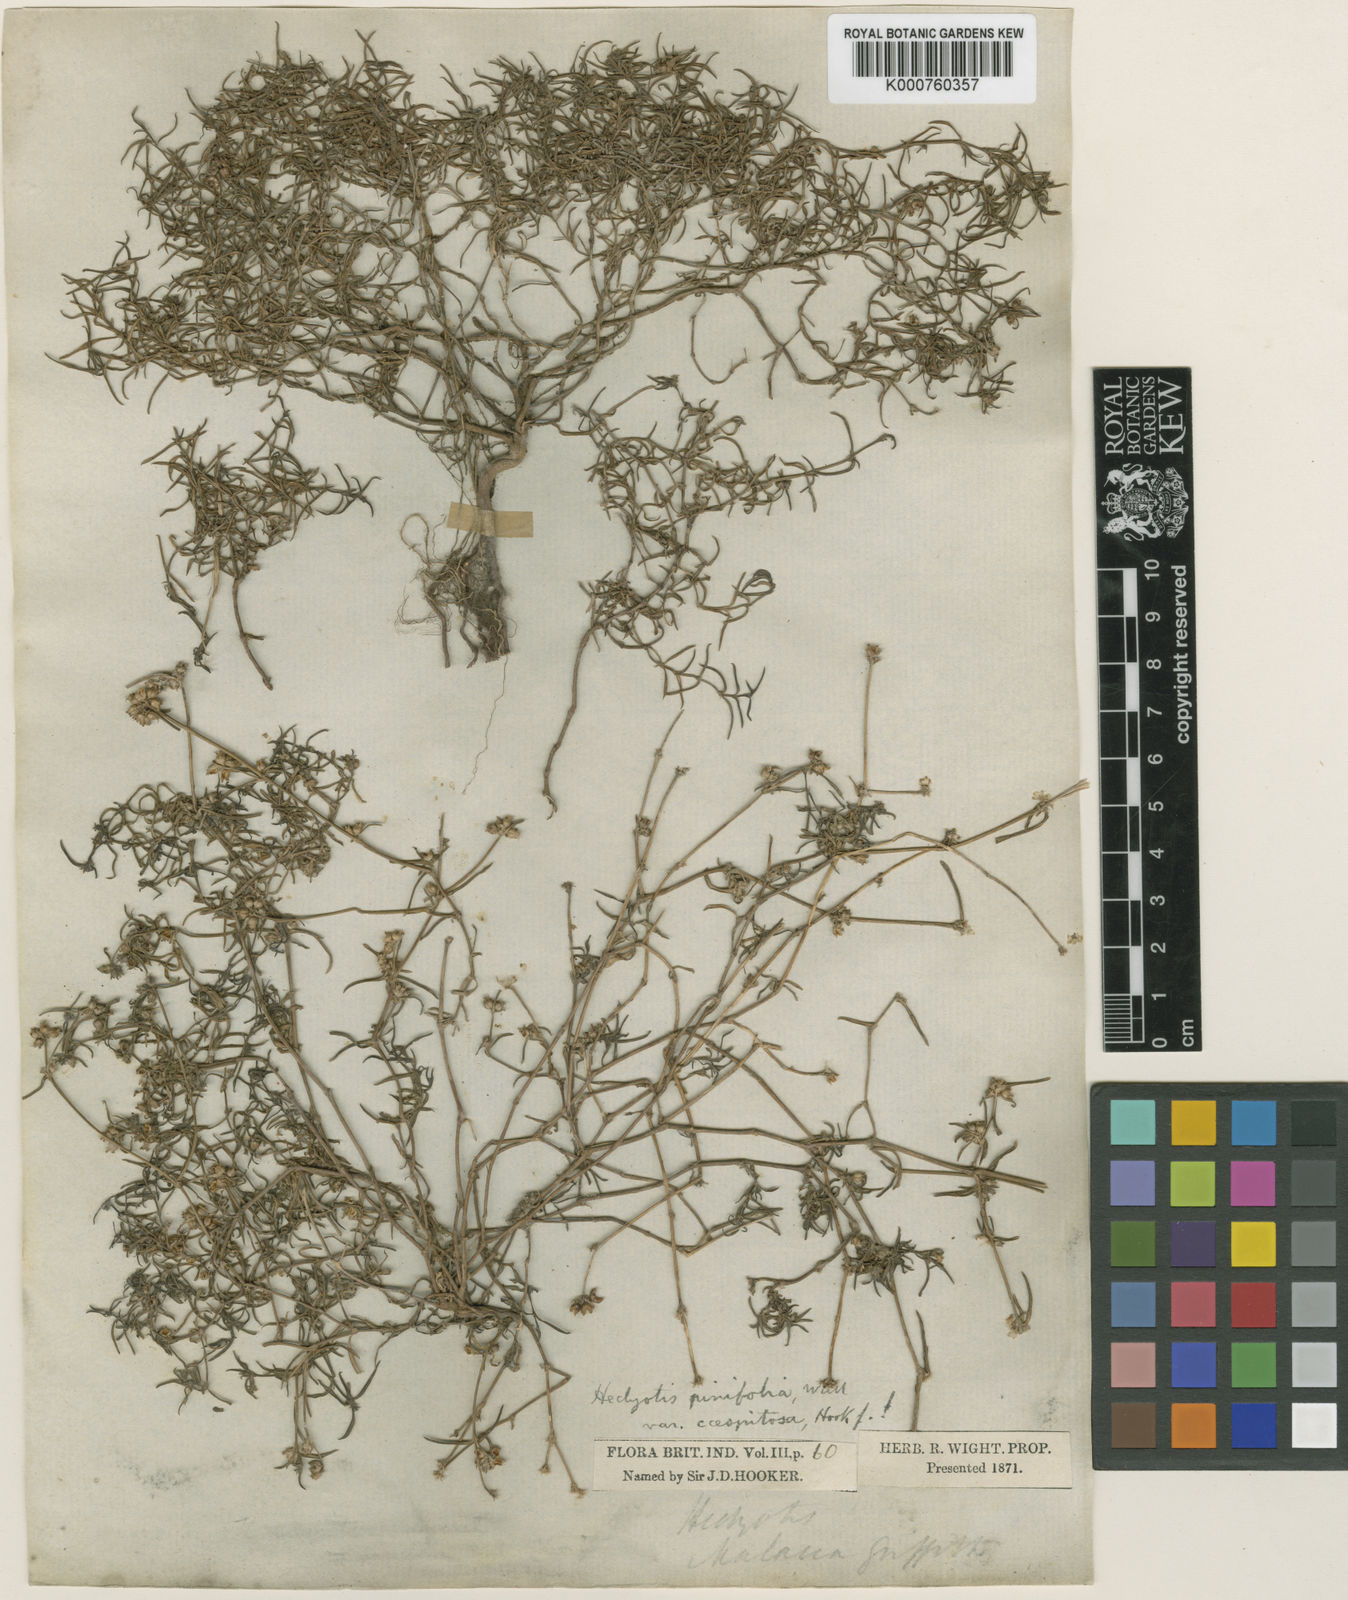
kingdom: Plantae
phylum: Tracheophyta
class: Magnoliopsida
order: Gentianales
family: Rubiaceae
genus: Scleromitrion
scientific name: Scleromitrion pinifolium
